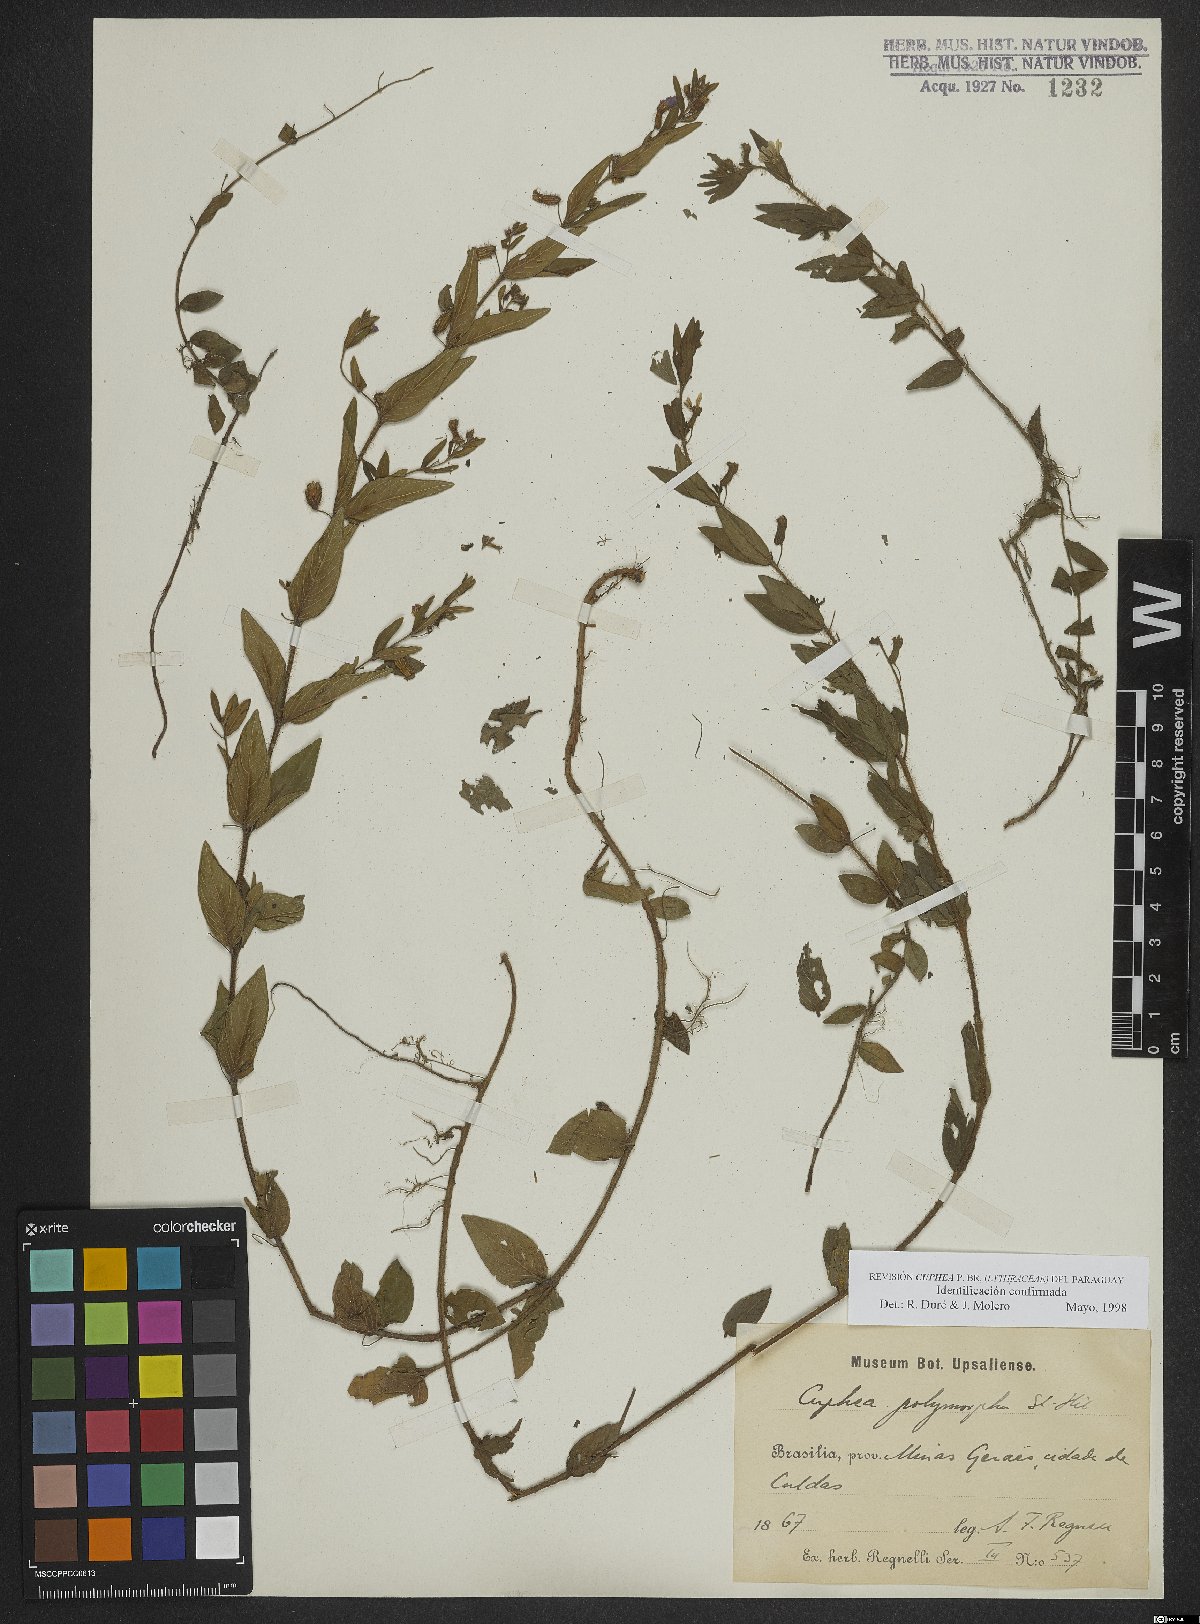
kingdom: Plantae
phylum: Tracheophyta
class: Magnoliopsida
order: Myrtales
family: Lythraceae
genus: Cuphea
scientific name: Cuphea polymorpha
